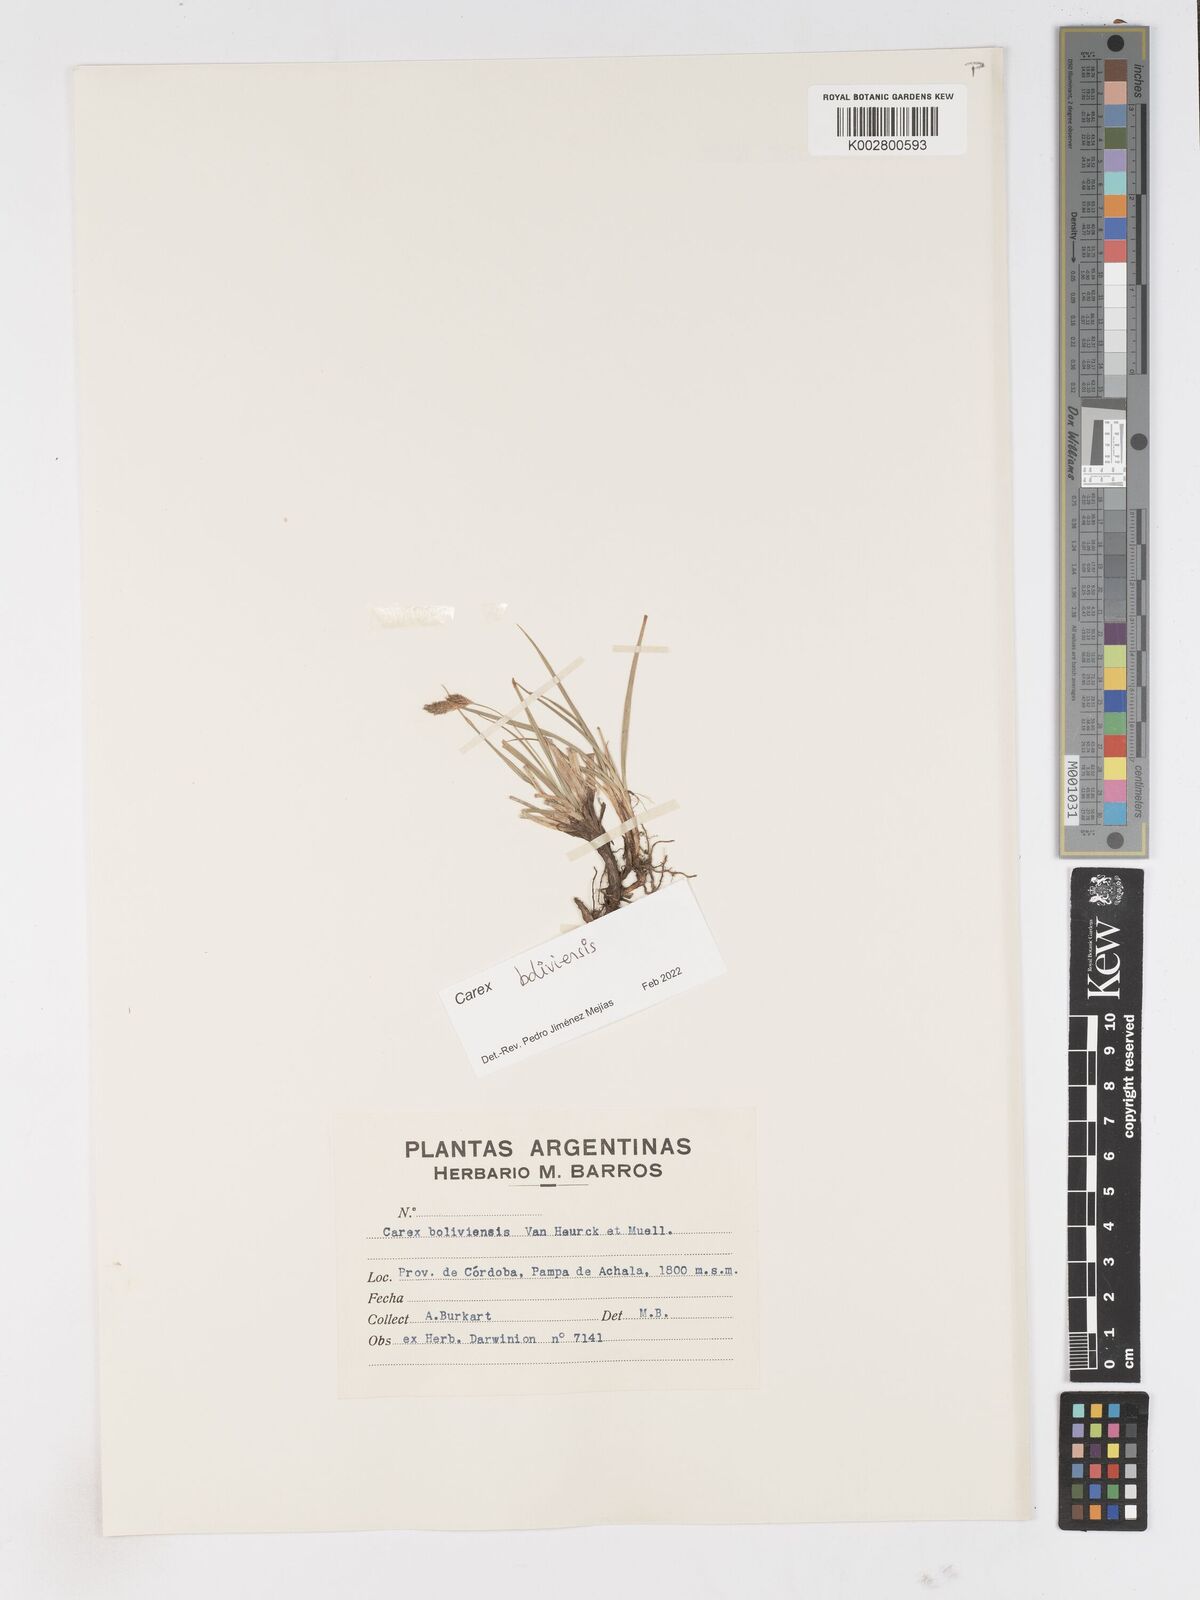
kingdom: Plantae
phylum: Tracheophyta
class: Liliopsida
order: Poales
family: Cyperaceae
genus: Carex
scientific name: Carex boliviensis
